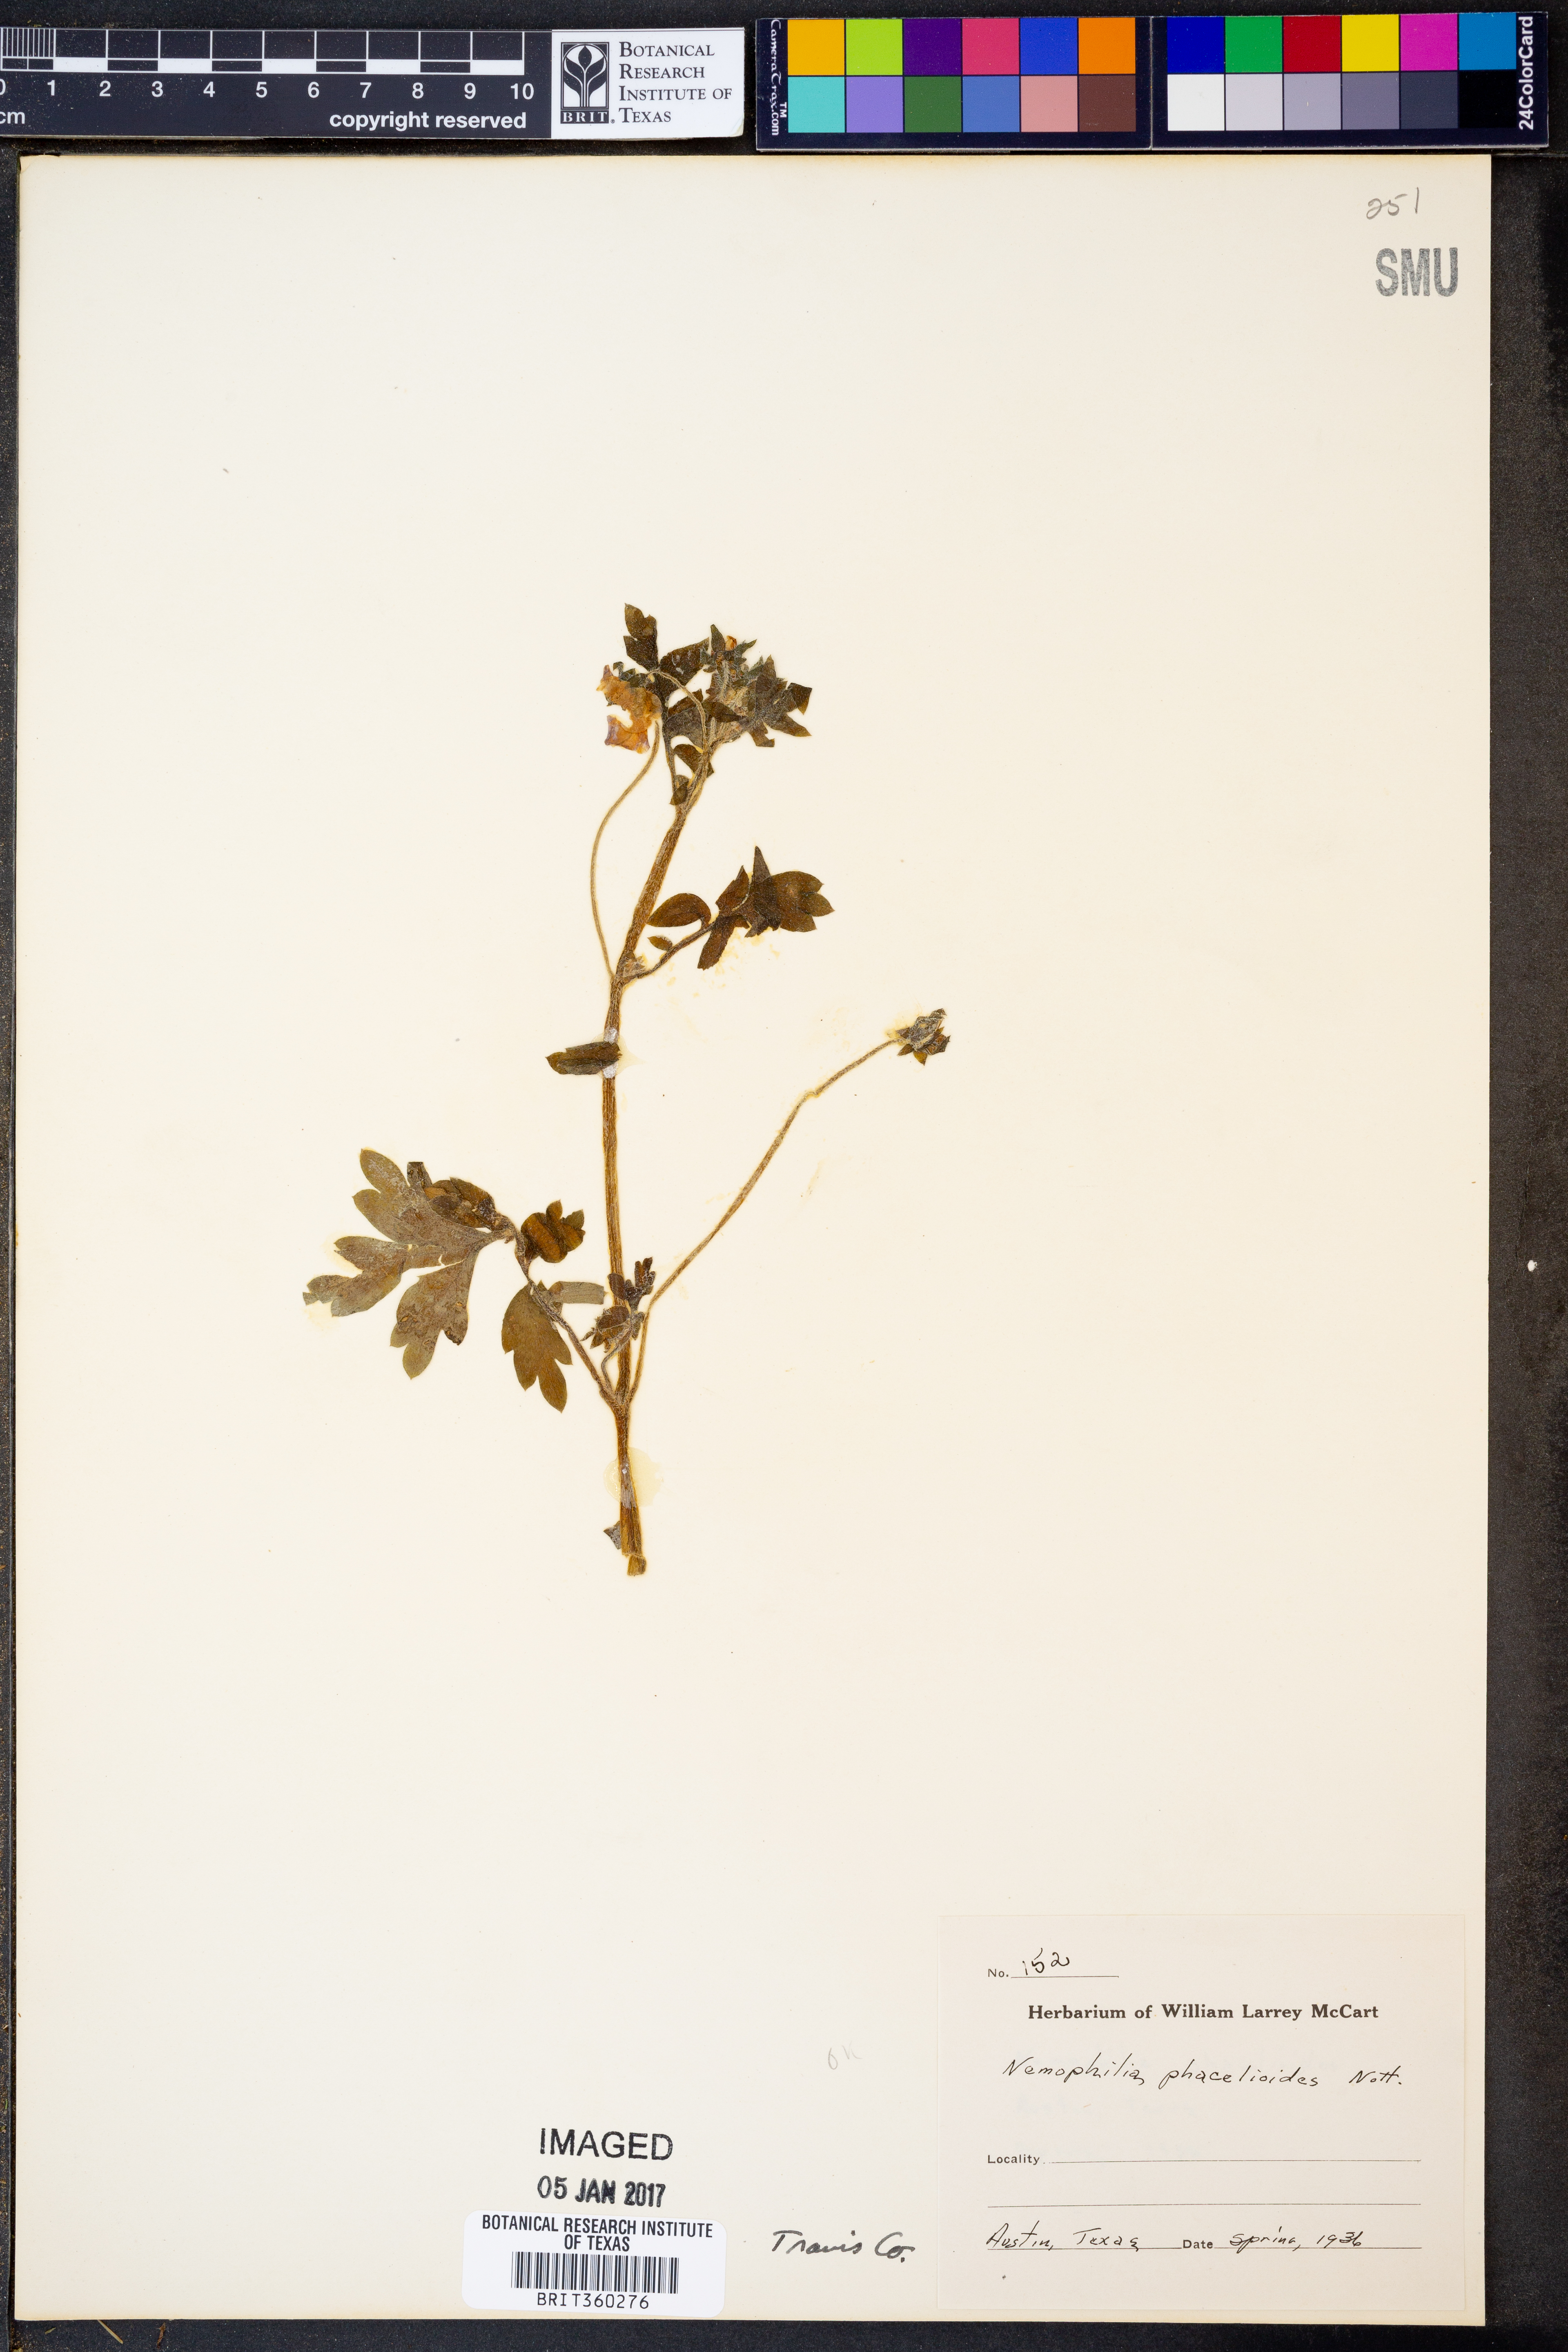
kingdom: Plantae
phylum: Tracheophyta
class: Magnoliopsida
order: Boraginales
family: Hydrophyllaceae
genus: Nemophila
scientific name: Nemophila phacelioides
